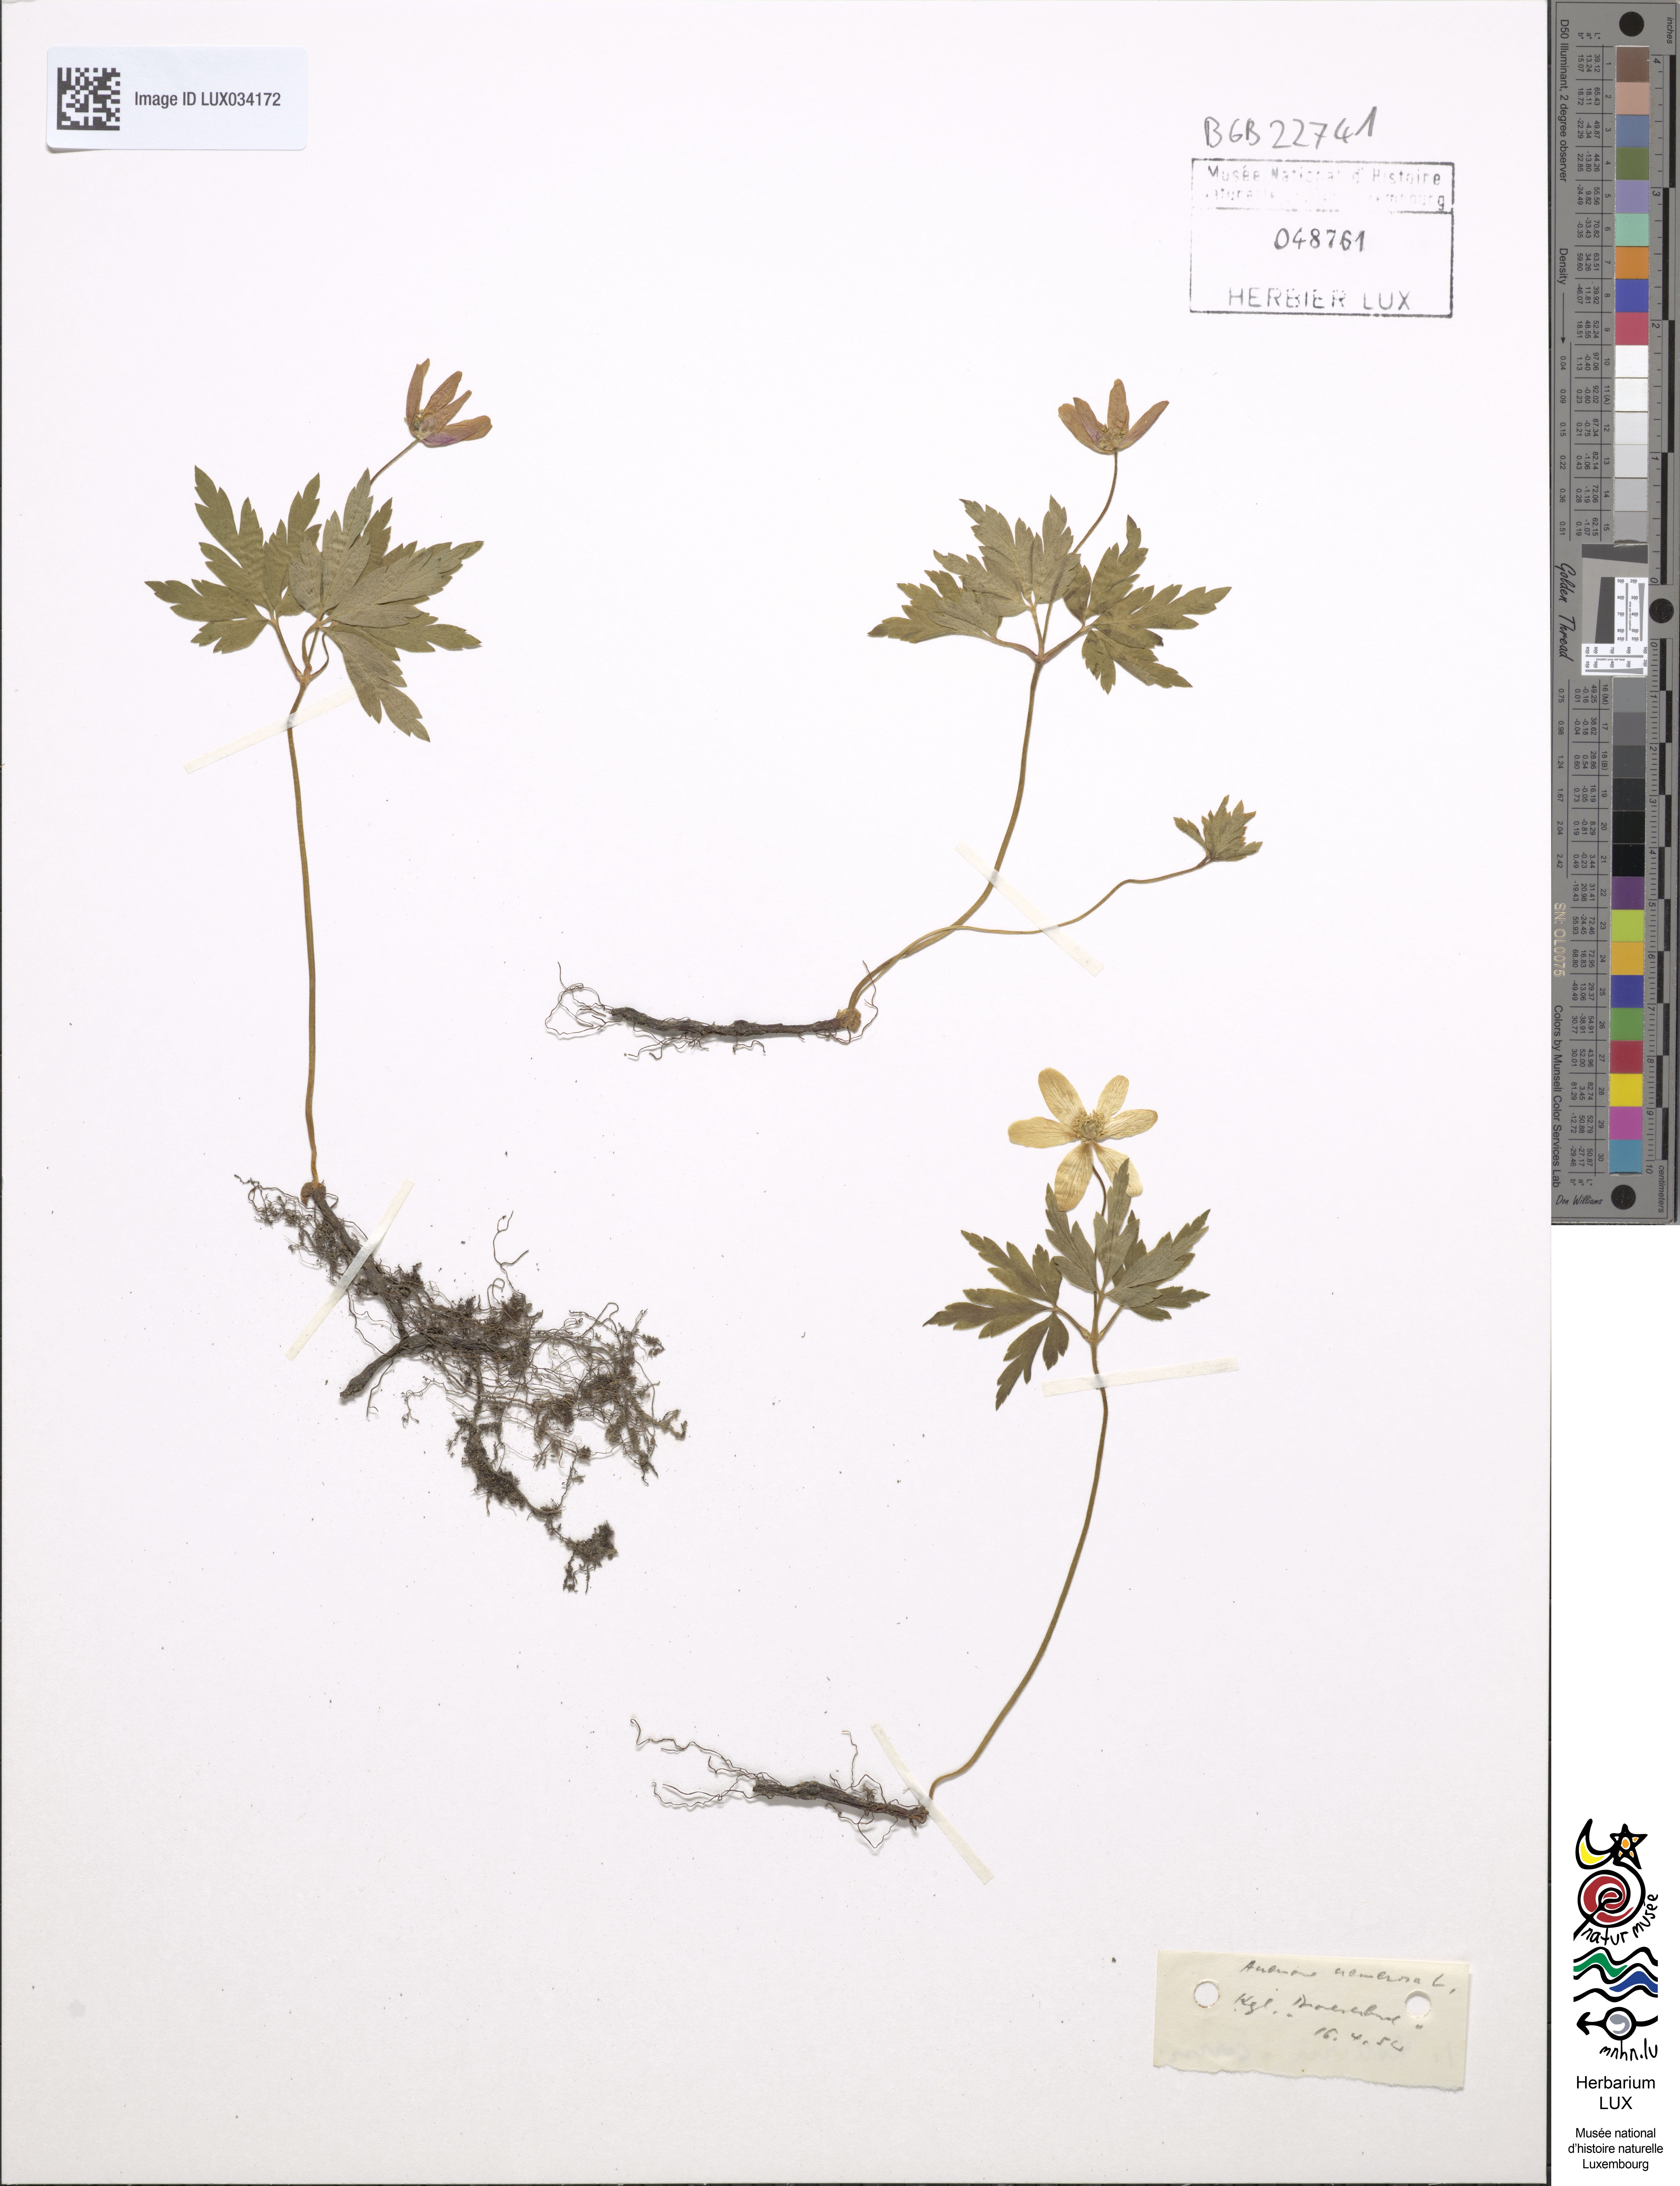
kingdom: Plantae
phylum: Tracheophyta
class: Magnoliopsida
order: Ranunculales
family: Ranunculaceae
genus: Anemone
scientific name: Anemone nemorosa
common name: Wood anemone
